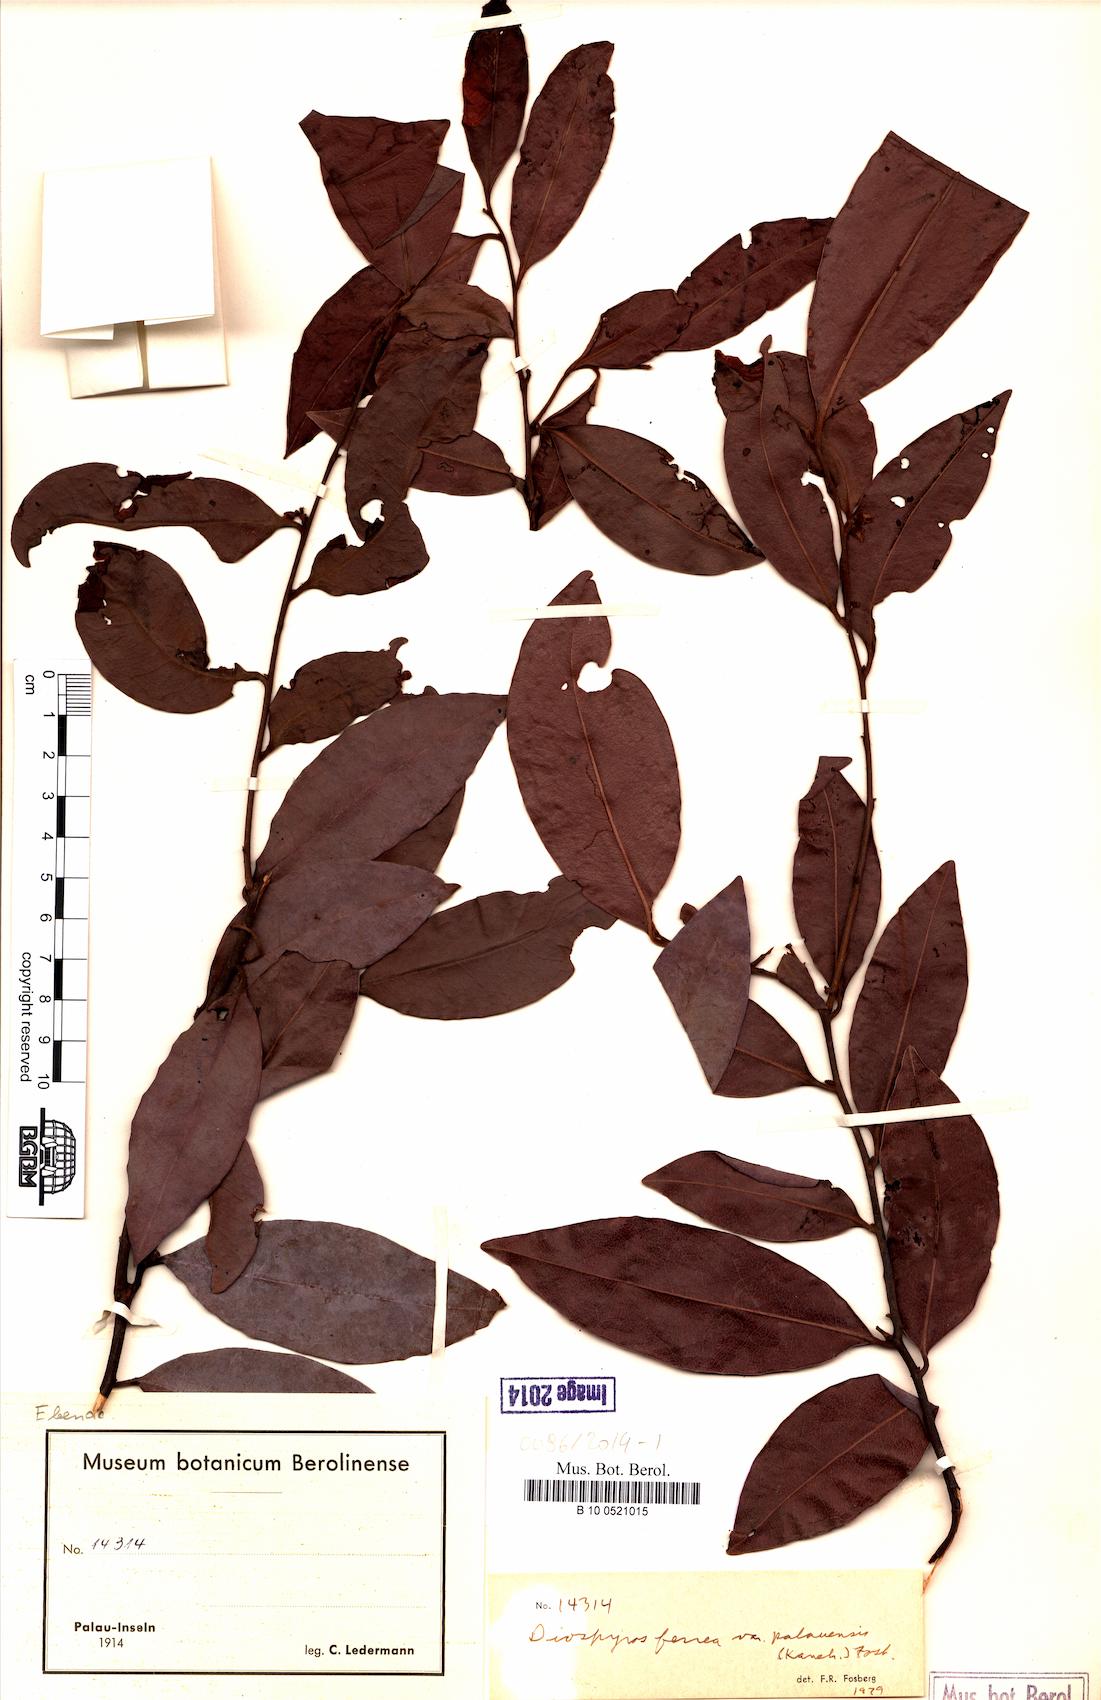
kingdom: Plantae
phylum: Tracheophyta
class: Magnoliopsida
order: Ericales
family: Ebenaceae
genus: Diospyros
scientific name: Diospyros ferrea
